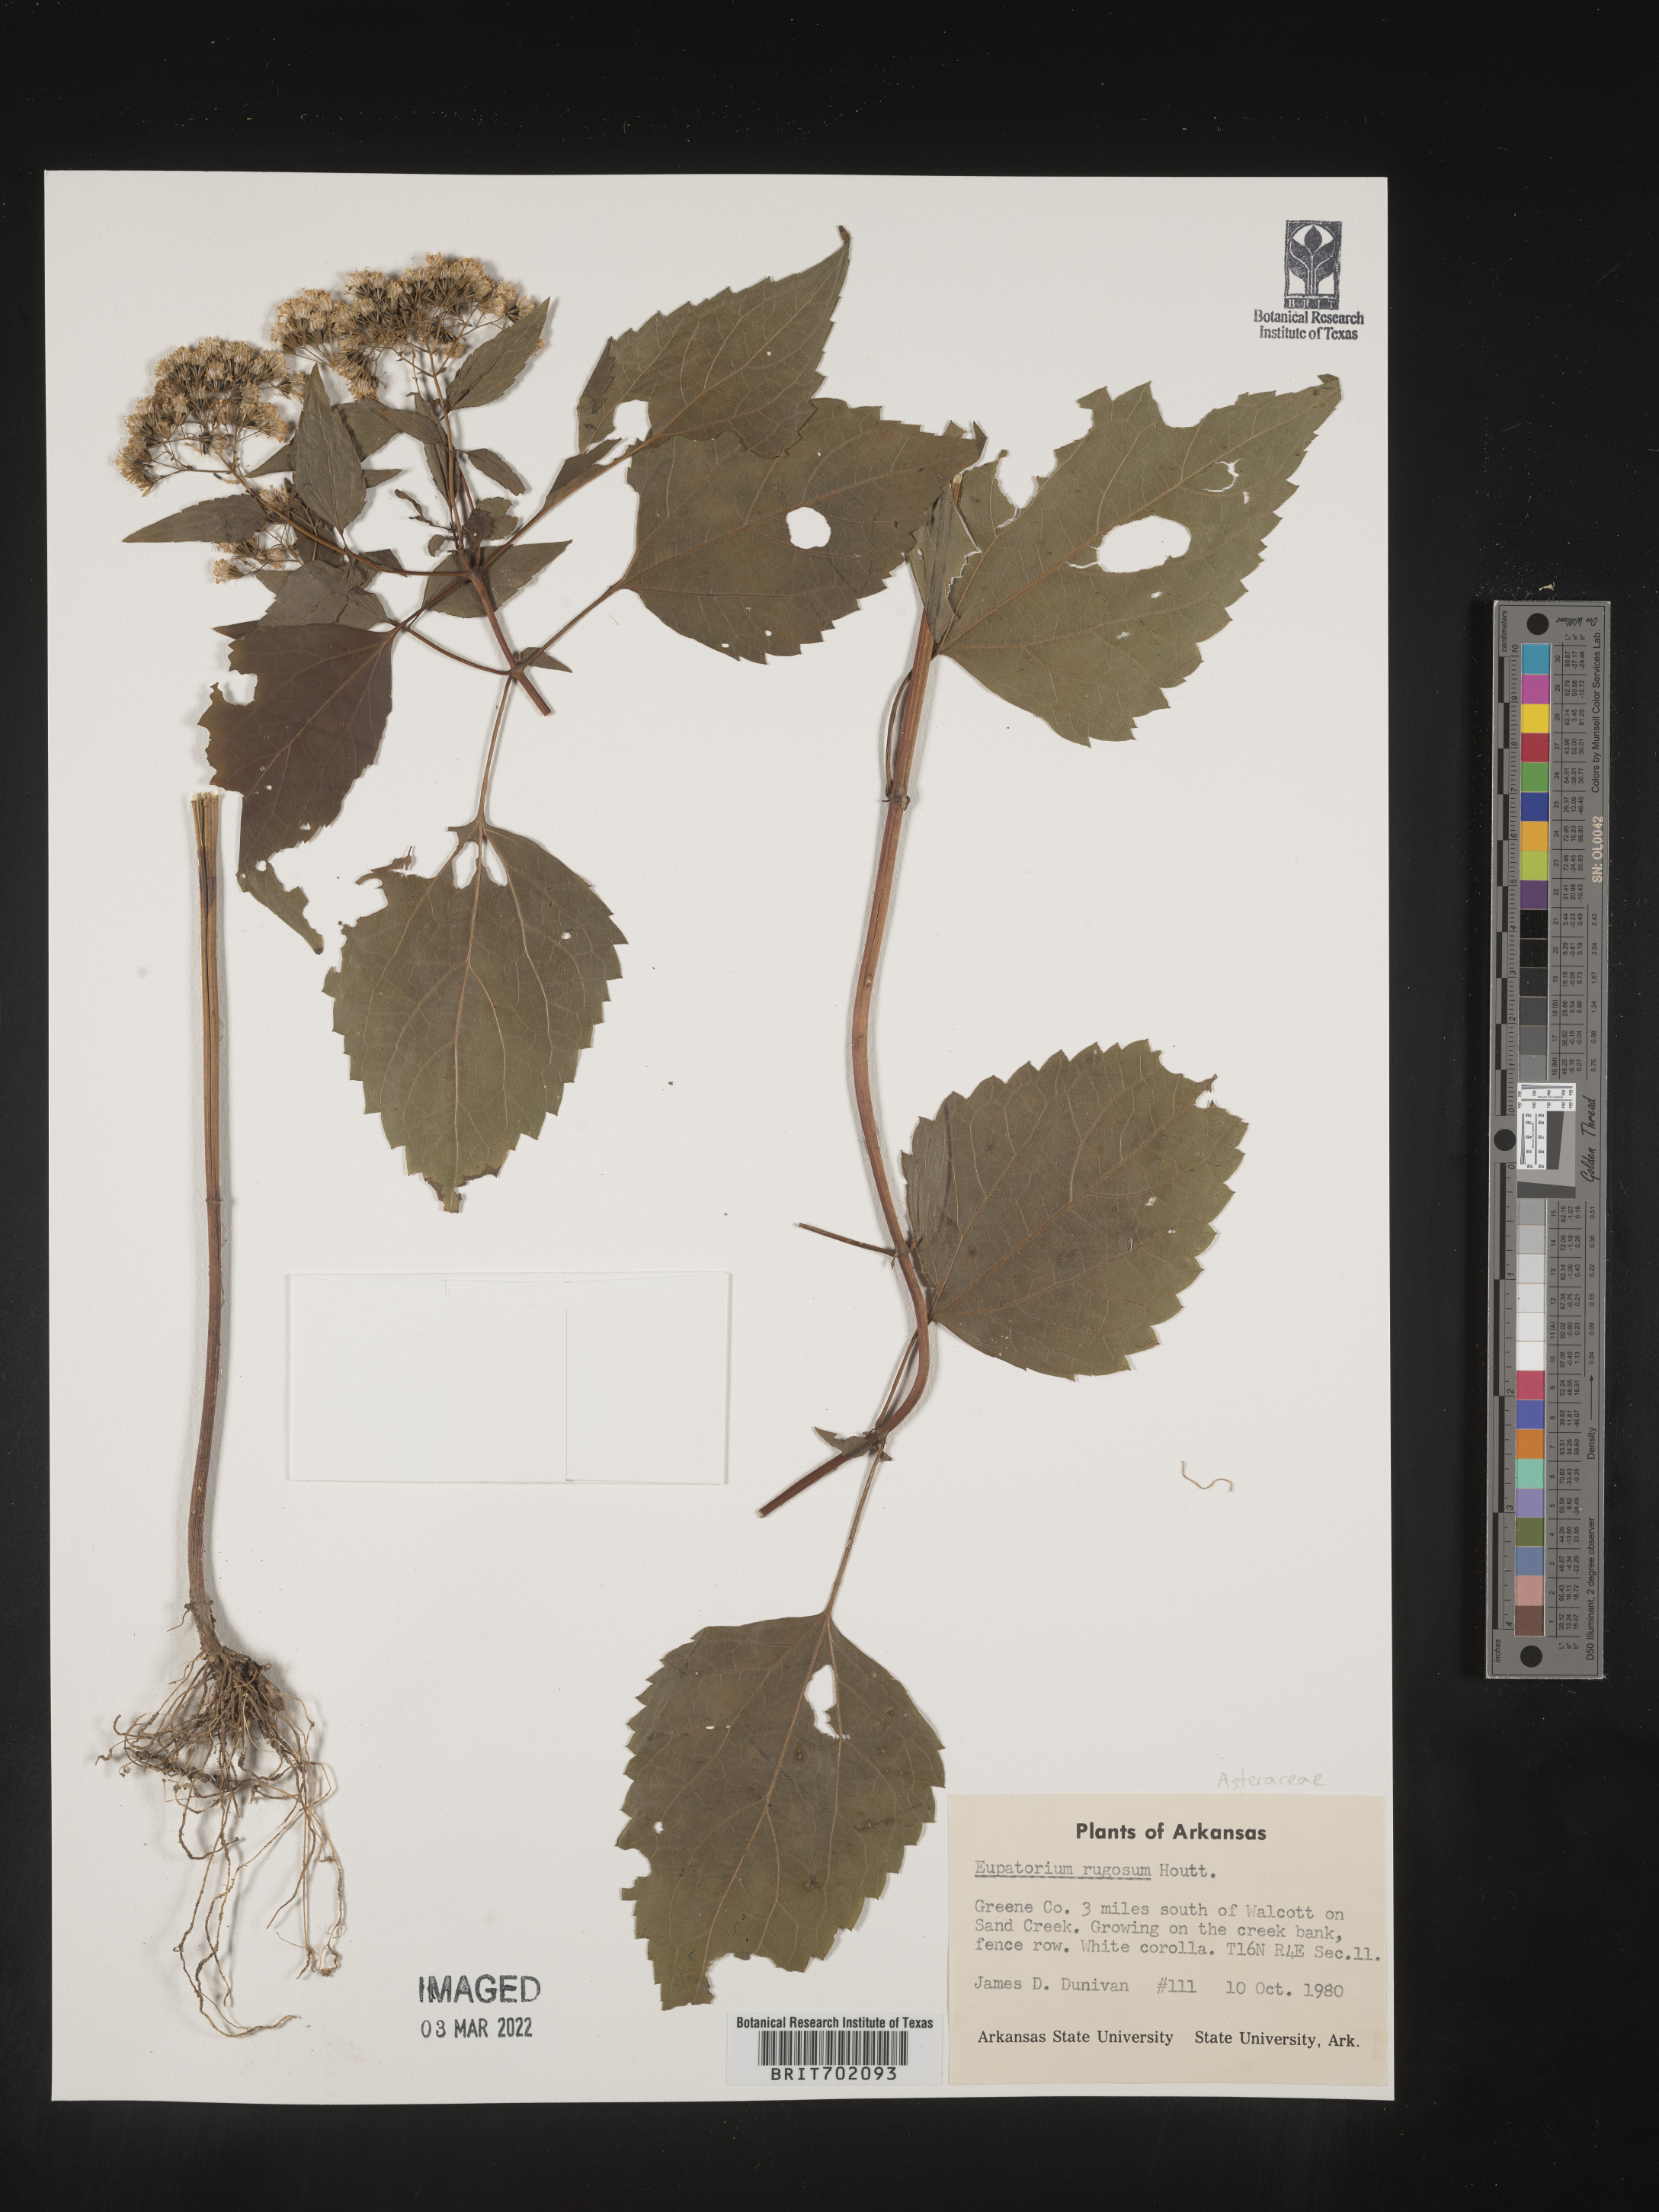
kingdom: Plantae
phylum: Tracheophyta
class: Magnoliopsida
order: Asterales
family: Asteraceae
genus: Cronquistianthus
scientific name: Cronquistianthus bulliferus
